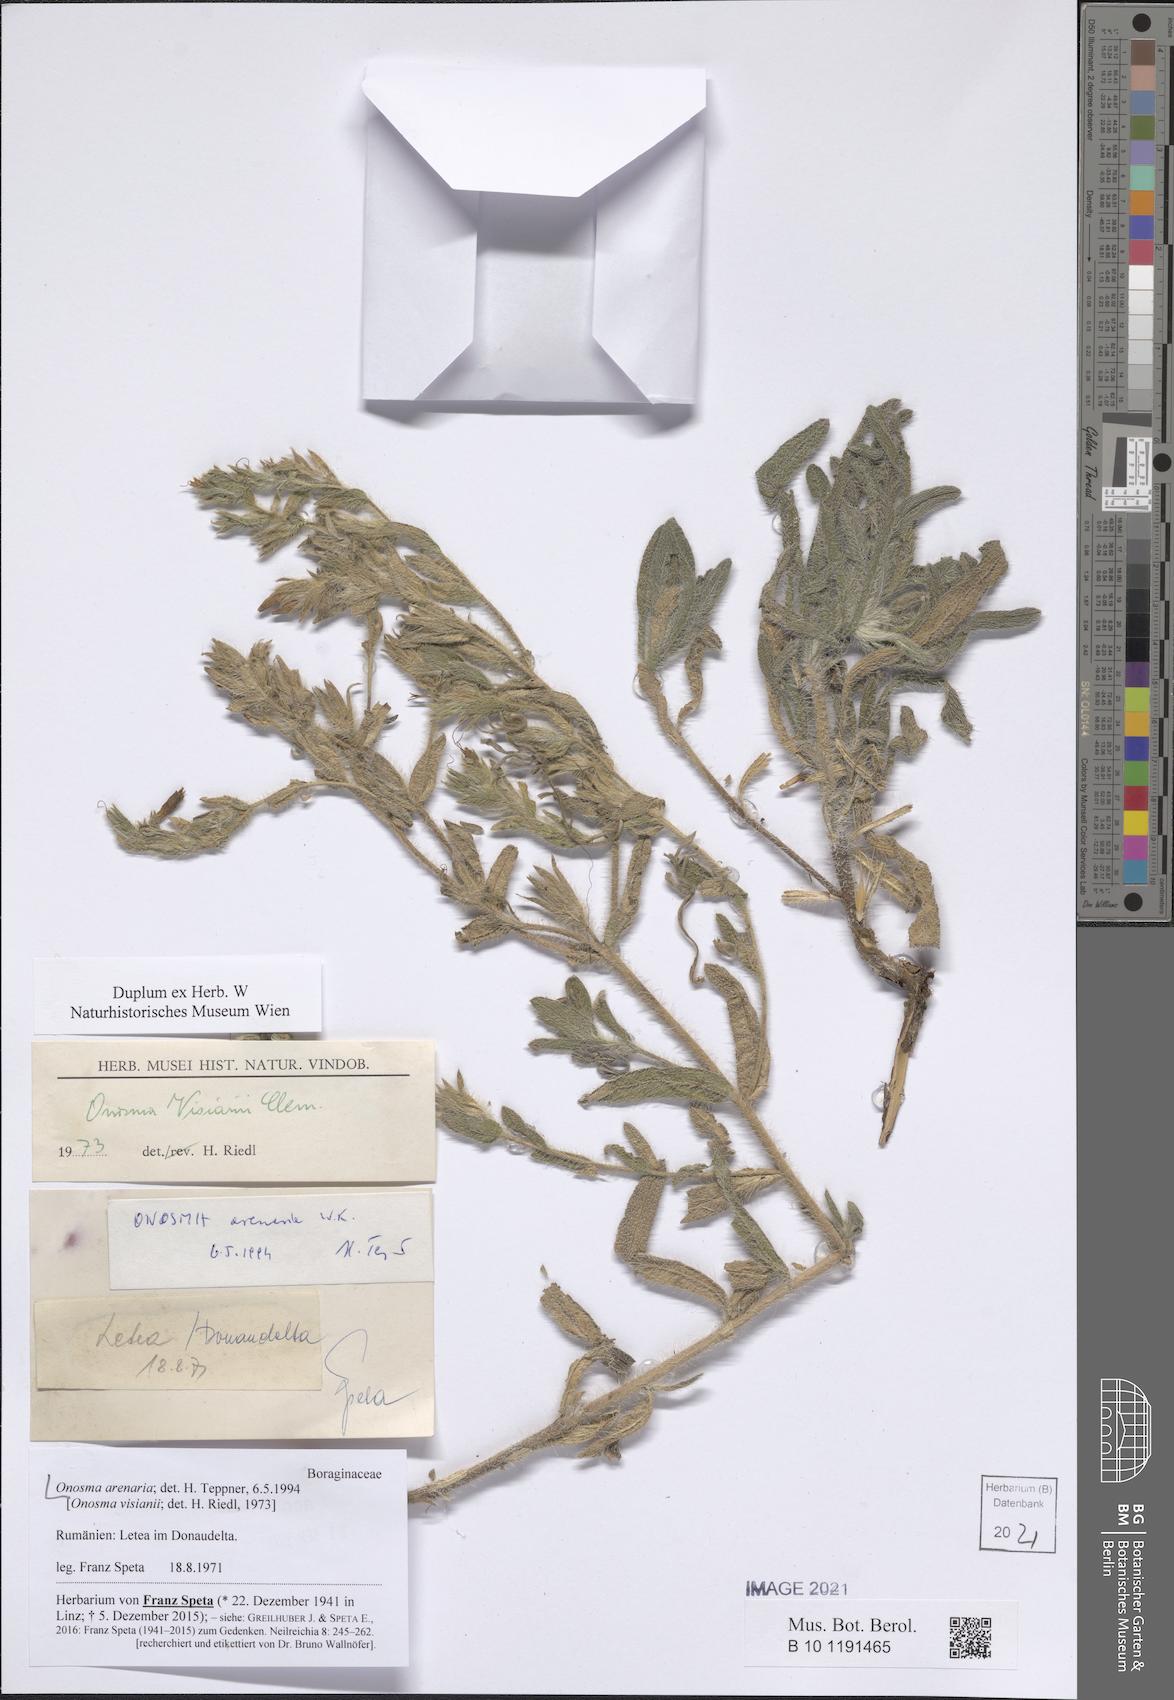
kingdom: Plantae
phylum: Tracheophyta
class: Magnoliopsida
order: Boraginales
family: Boraginaceae
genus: Onosma
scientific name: Onosma arenaria
